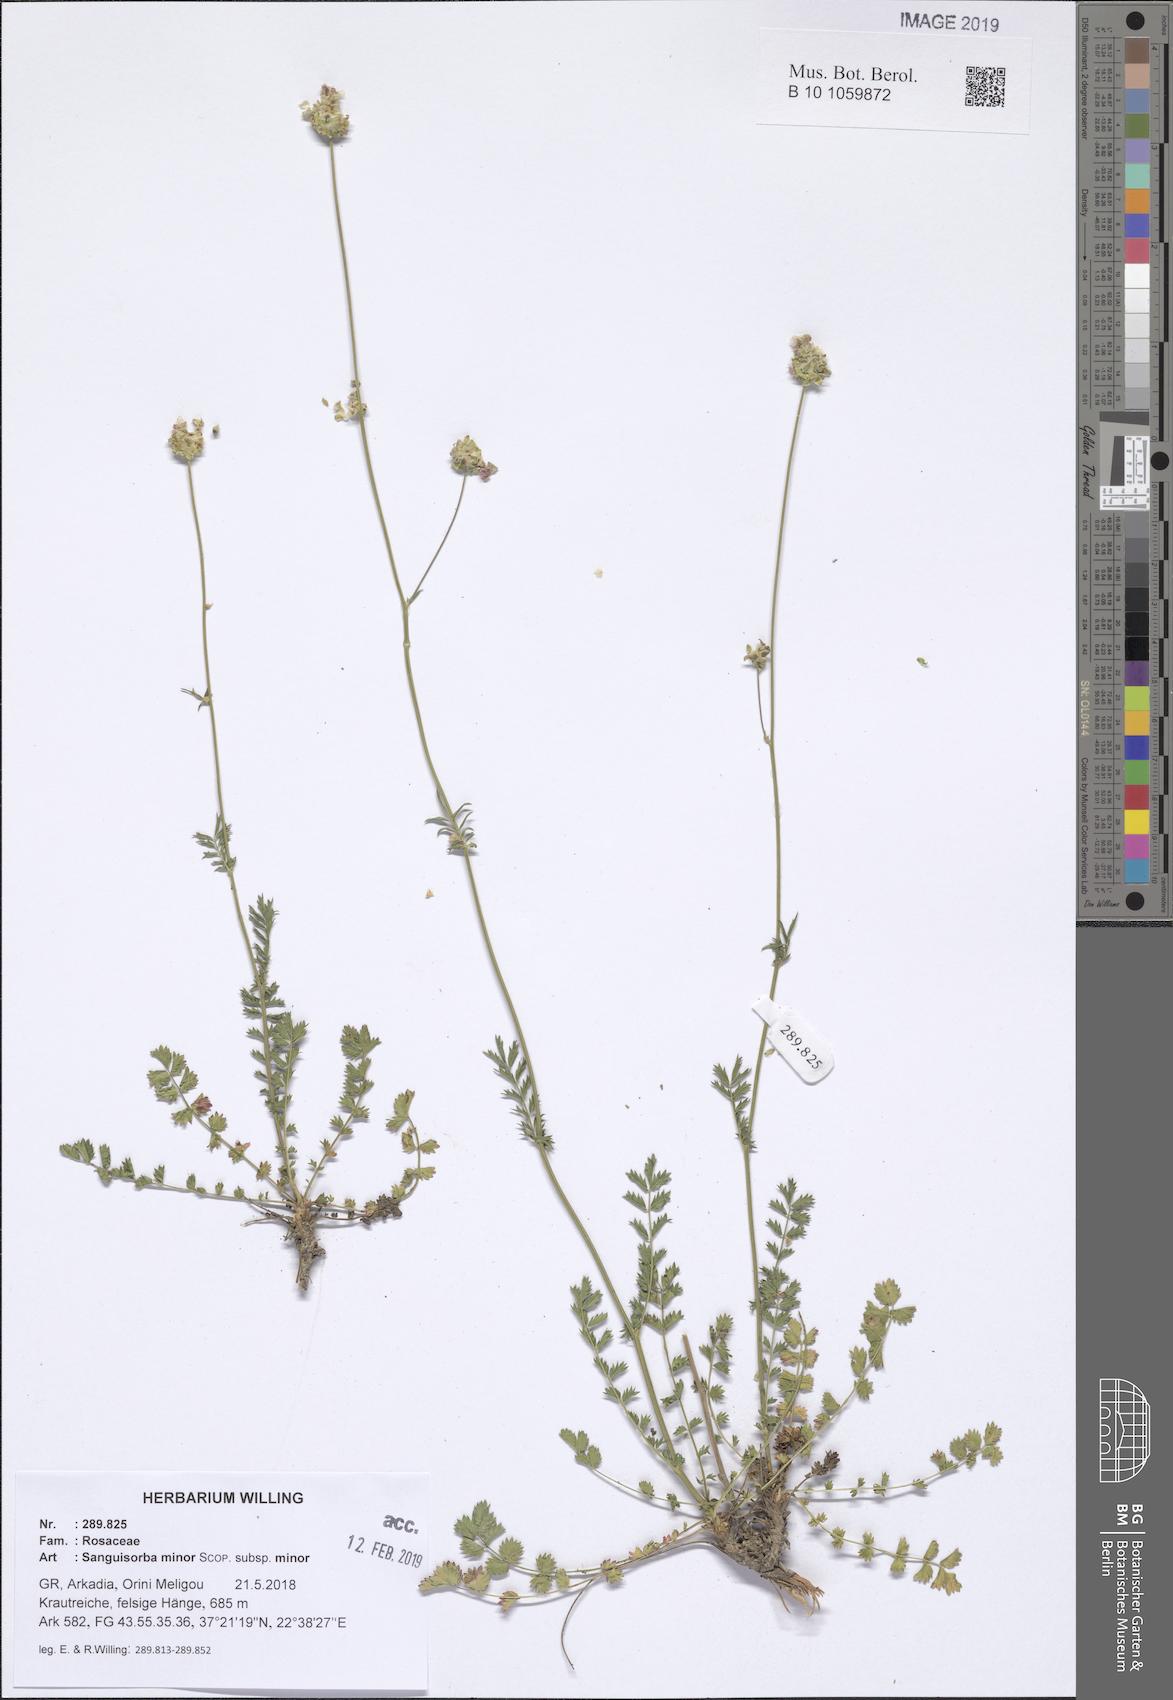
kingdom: Plantae
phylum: Tracheophyta
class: Magnoliopsida
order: Rosales
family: Rosaceae
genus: Poterium
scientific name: Poterium sanguisorba
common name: Salad burnet
